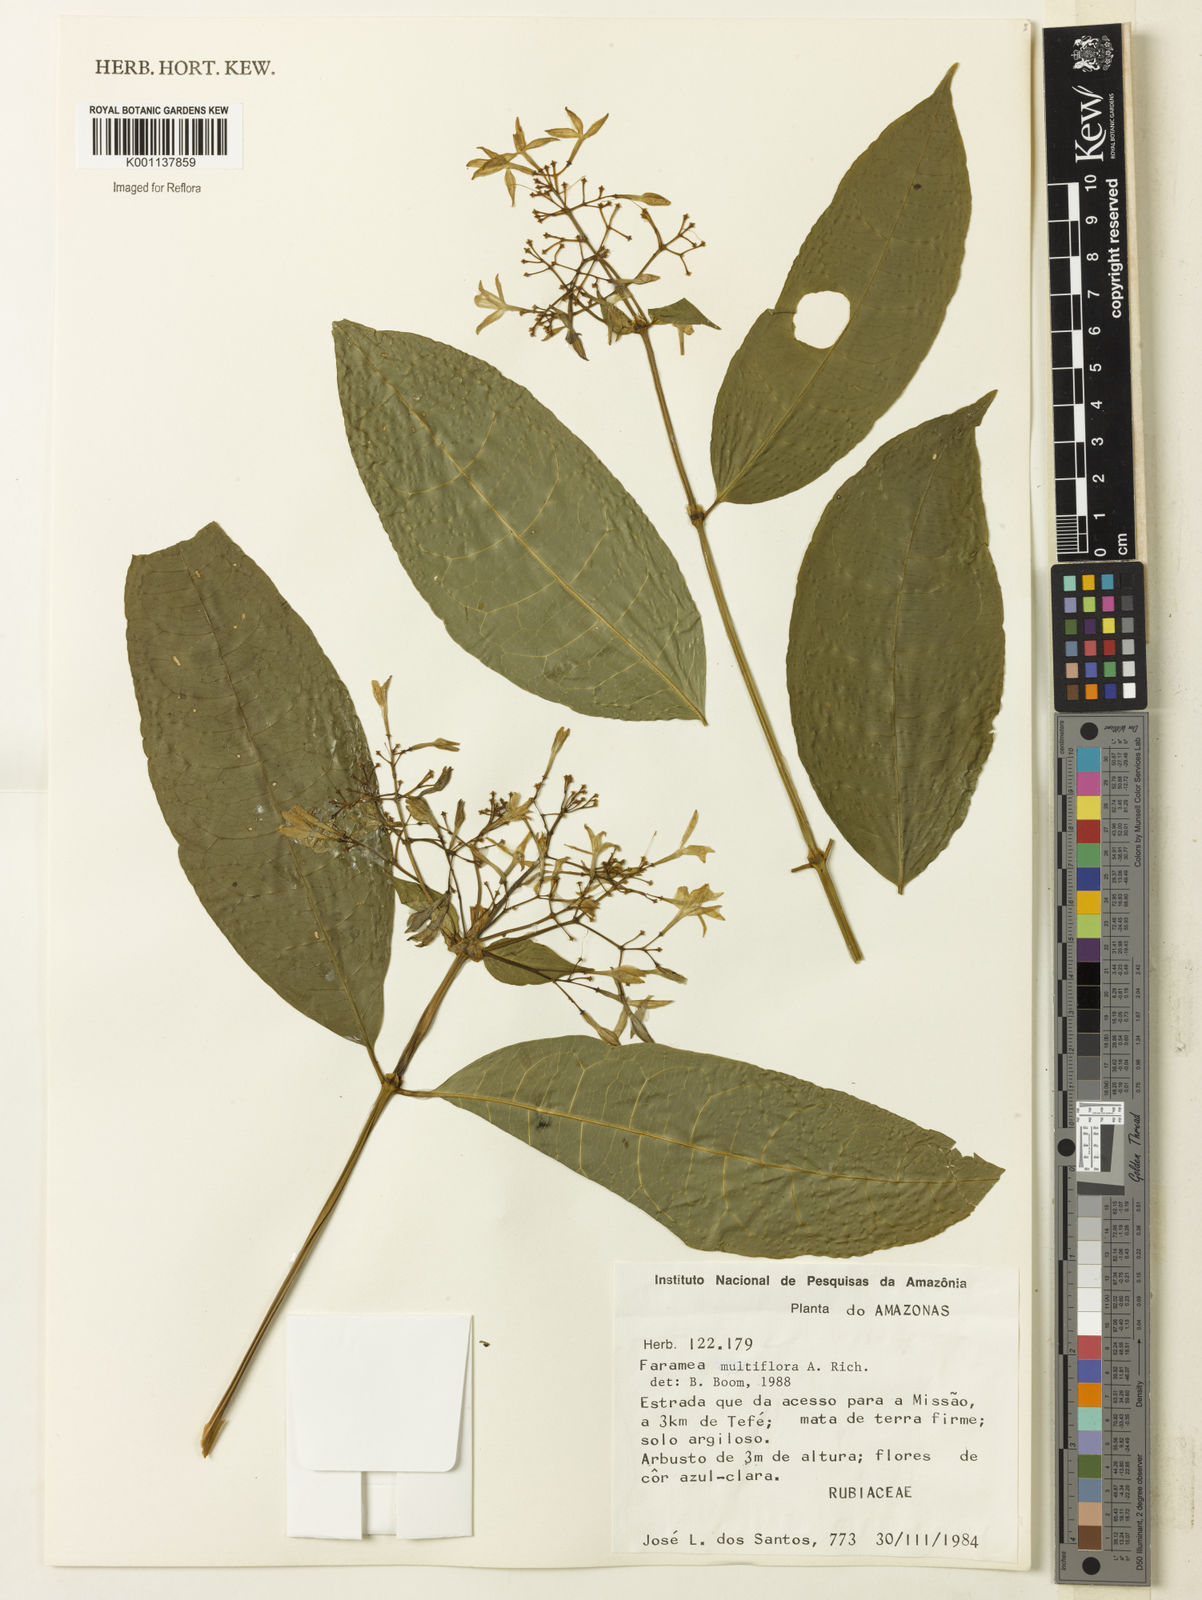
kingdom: Plantae
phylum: Tracheophyta
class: Magnoliopsida
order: Gentianales
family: Rubiaceae
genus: Faramea
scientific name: Faramea multiflora
